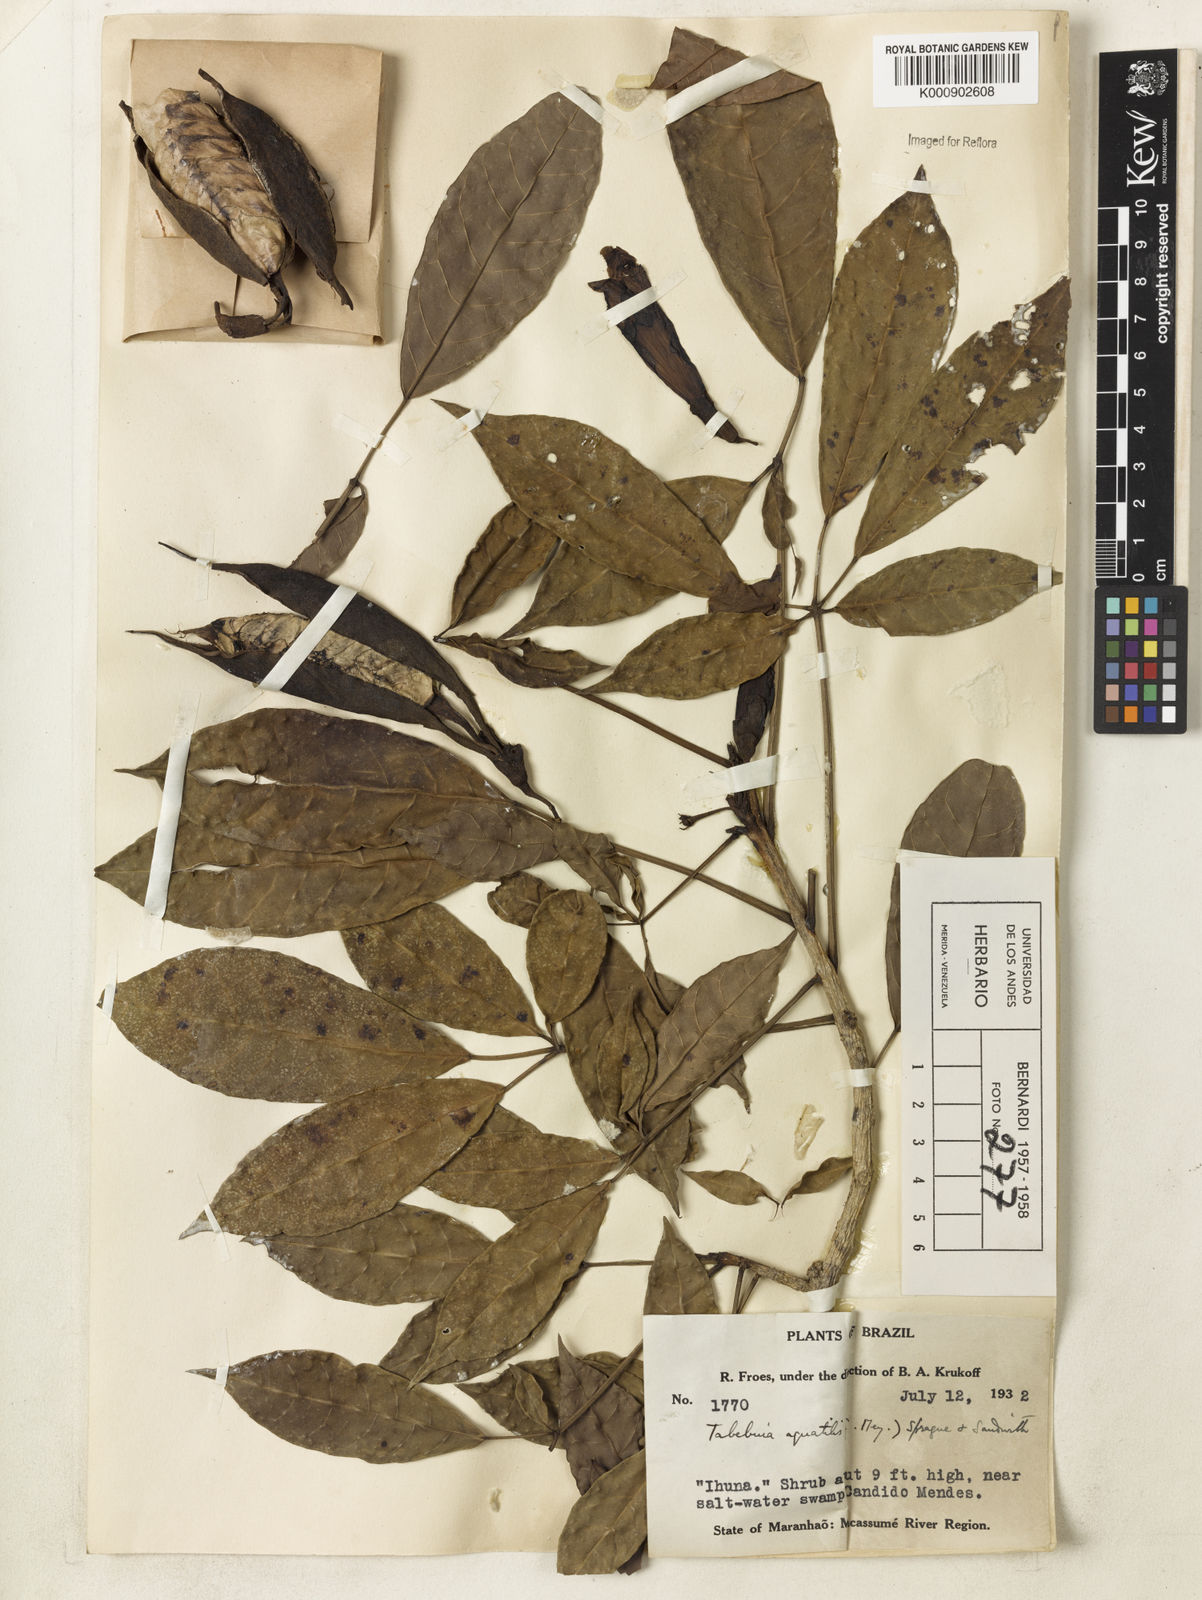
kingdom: Plantae
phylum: Tracheophyta
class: Magnoliopsida
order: Lamiales
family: Bignoniaceae
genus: Tabebuia
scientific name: Tabebuia fluviatilis
